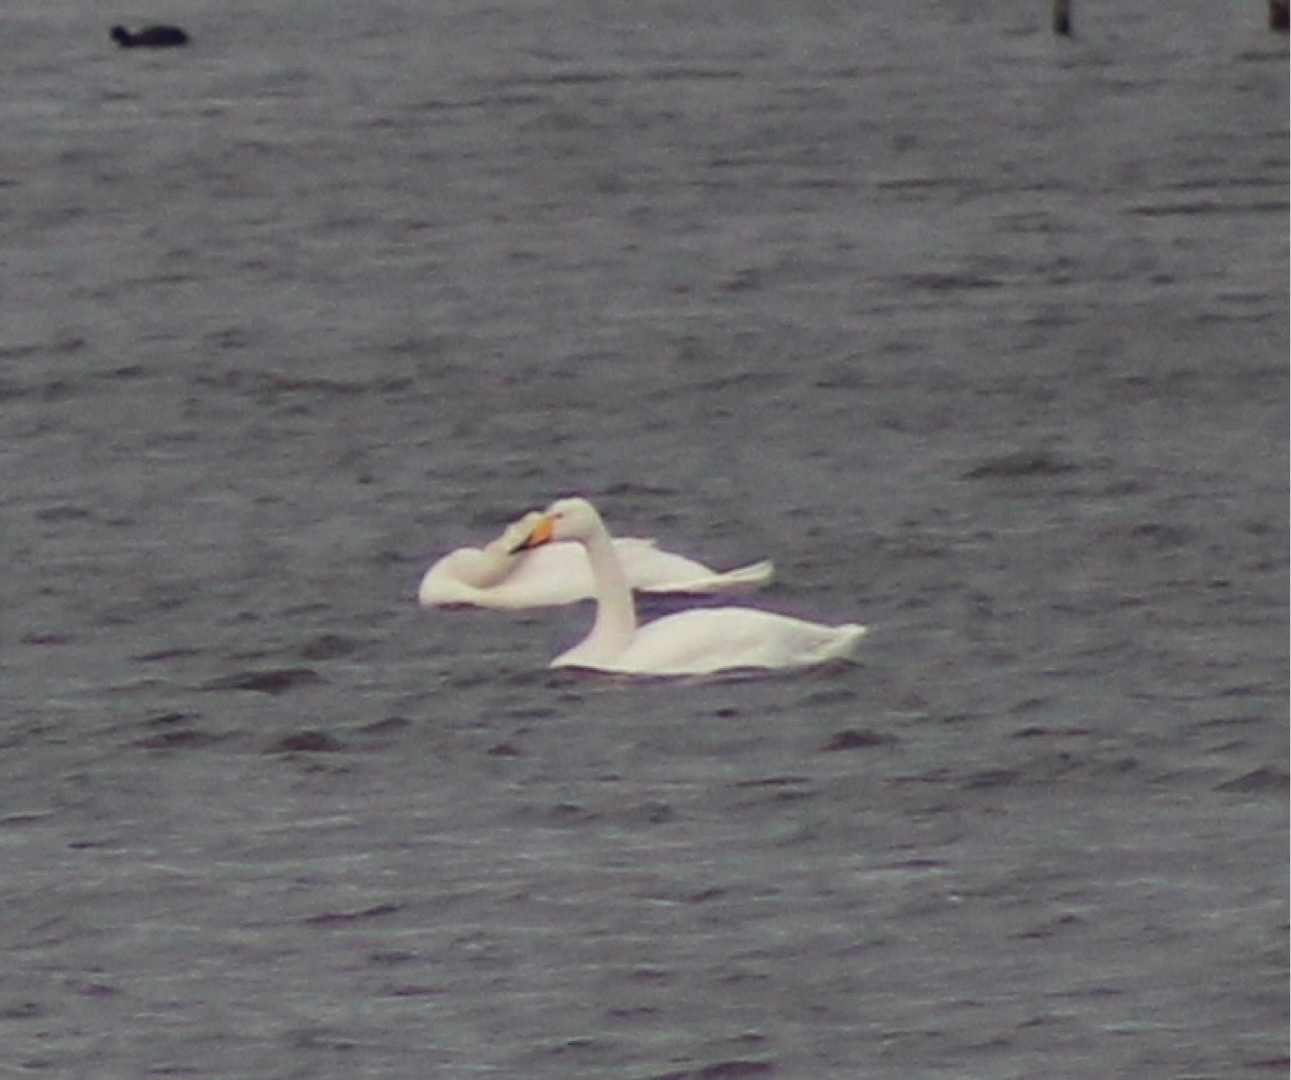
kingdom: Animalia
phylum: Chordata
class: Aves
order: Anseriformes
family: Anatidae
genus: Cygnus
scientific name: Cygnus cygnus
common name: Sangsvane
